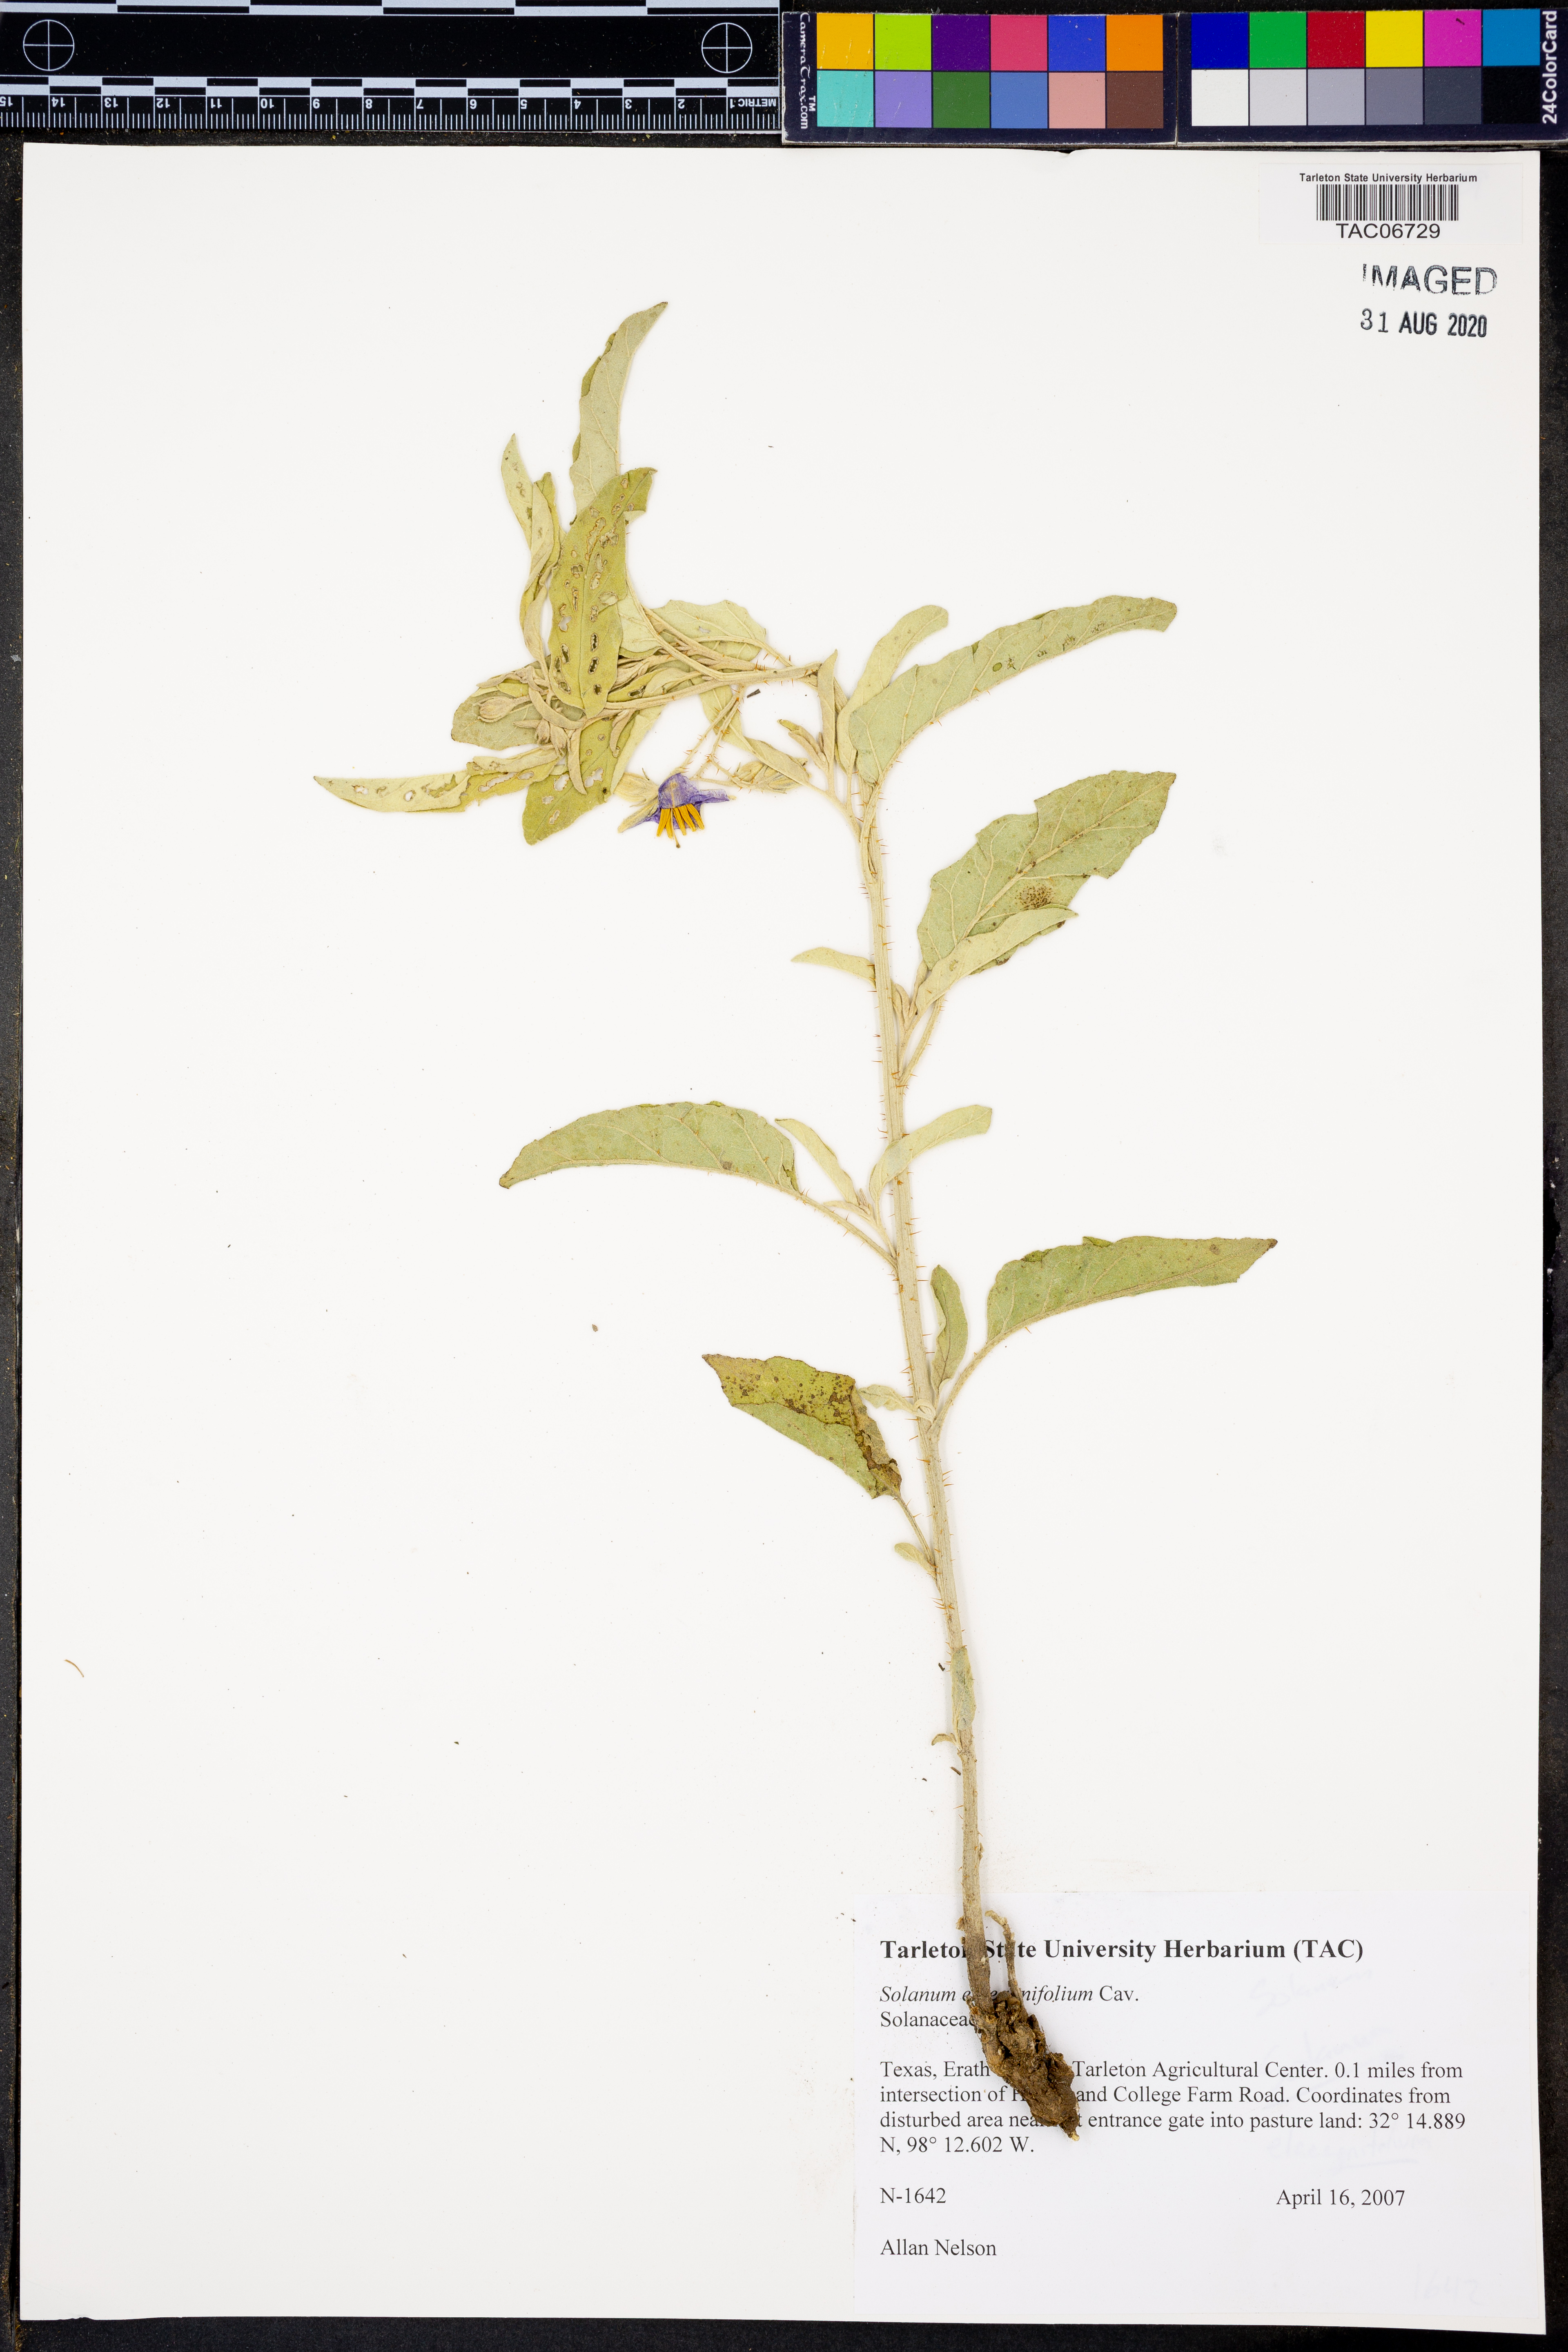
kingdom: Plantae
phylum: Tracheophyta
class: Magnoliopsida
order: Solanales
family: Solanaceae
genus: Solanum
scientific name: Solanum elaeagnifolium
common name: Silverleaf nightshade
